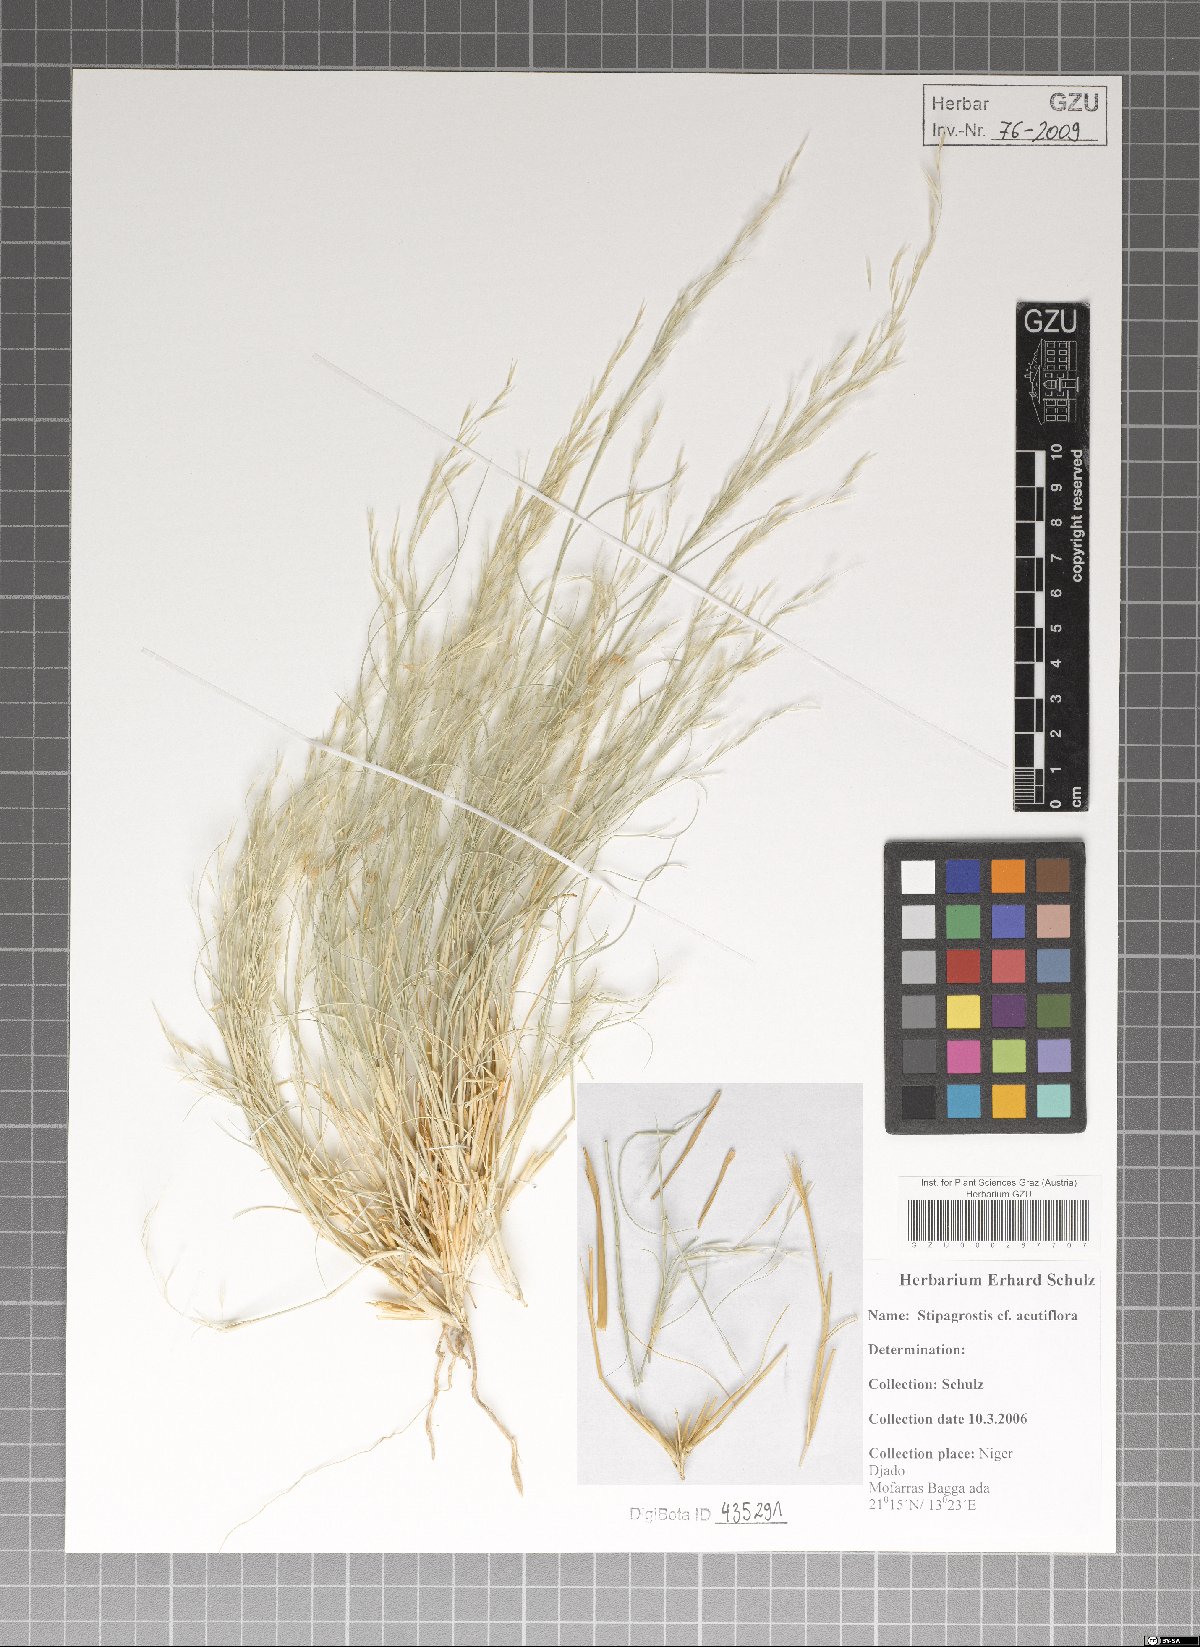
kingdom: Plantae
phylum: Tracheophyta
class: Liliopsida
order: Poales
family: Poaceae
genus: Stipagrostis
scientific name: Stipagrostis acutiflora
